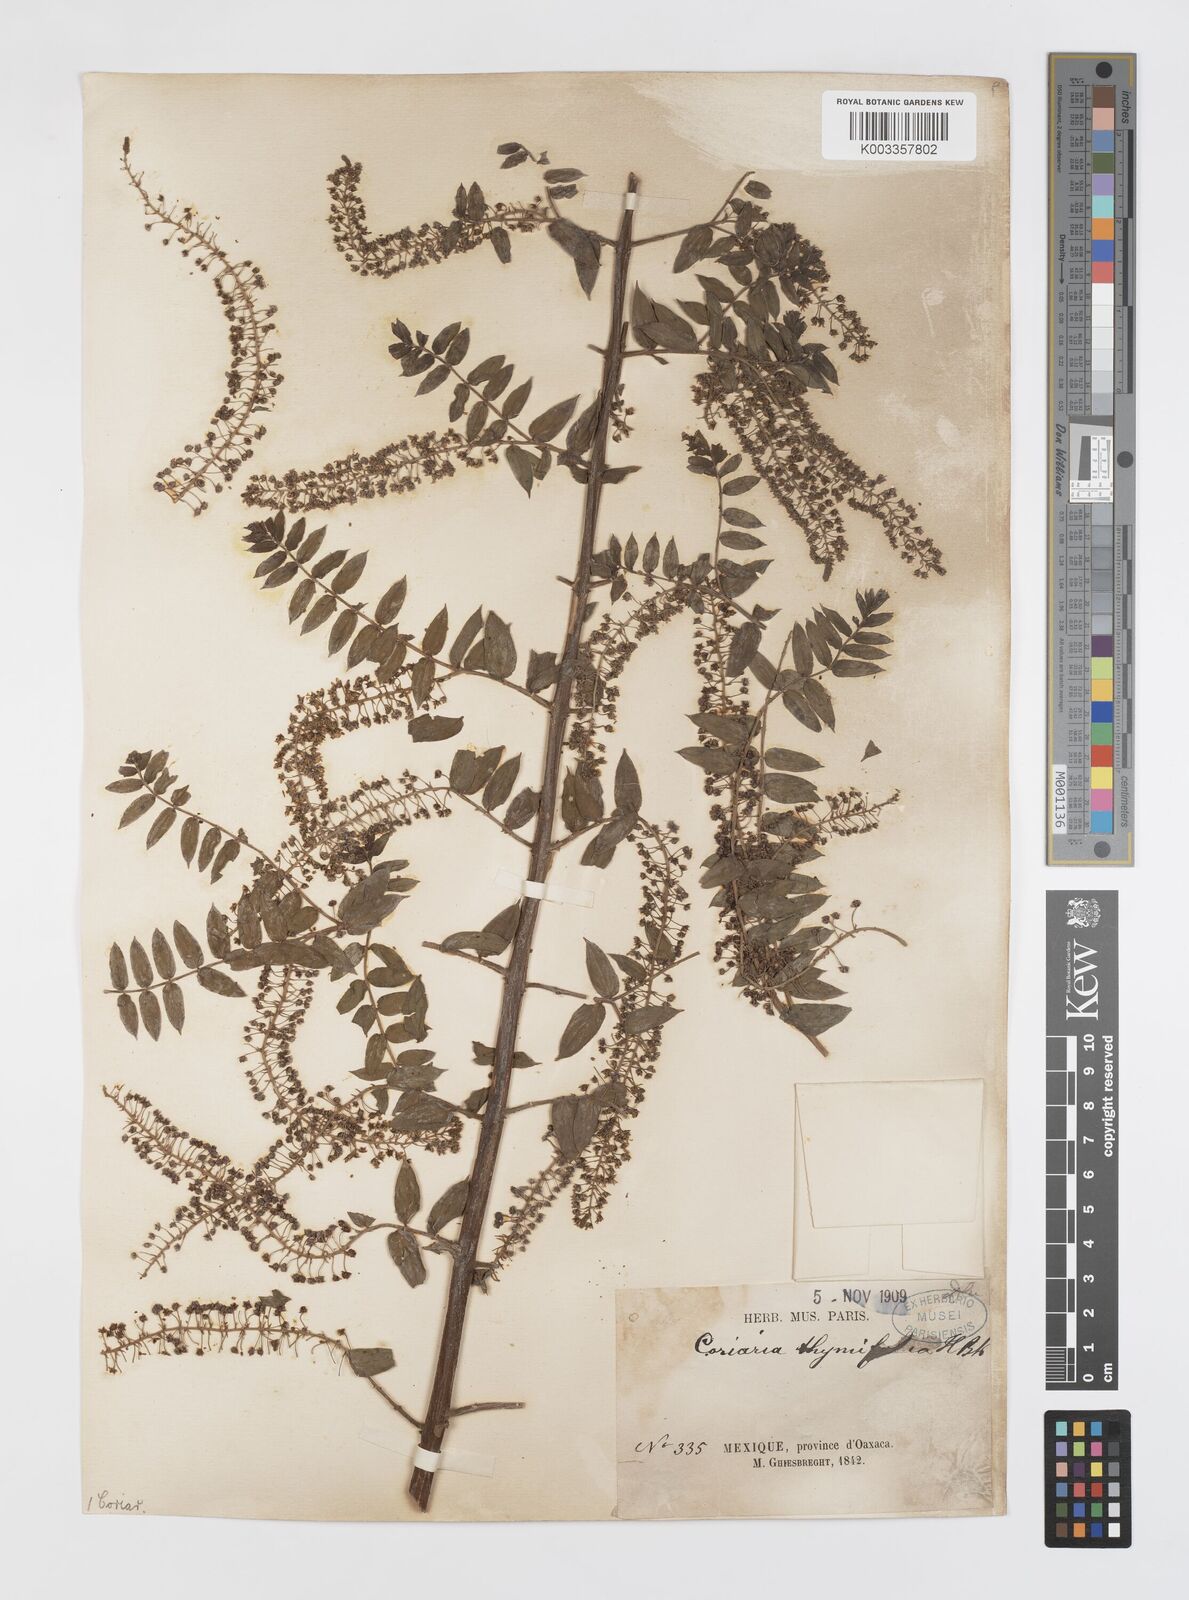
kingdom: Plantae
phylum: Tracheophyta
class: Magnoliopsida
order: Cucurbitales
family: Coriariaceae
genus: Coriaria
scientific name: Coriaria microphylla
